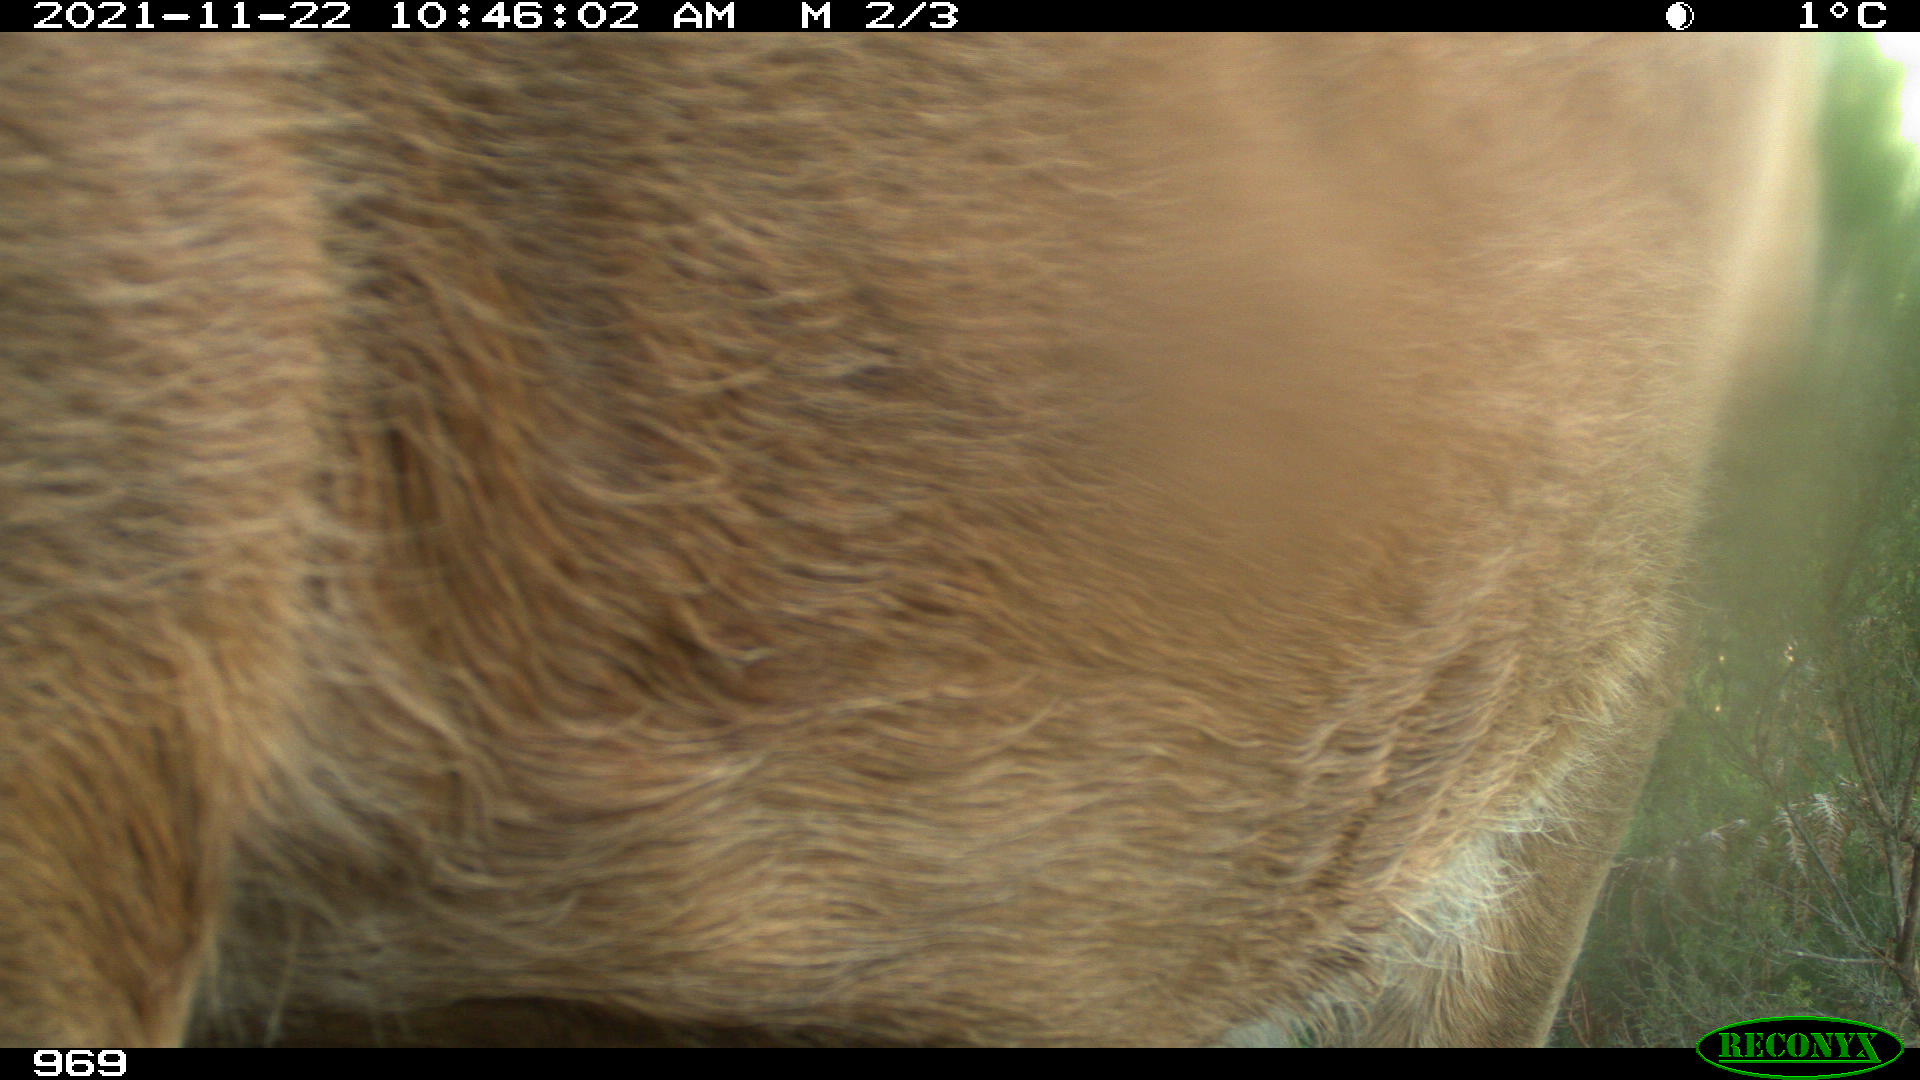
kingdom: Animalia
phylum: Chordata
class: Mammalia
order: Artiodactyla
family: Bovidae
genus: Bos
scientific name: Bos taurus
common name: Domesticated cattle
